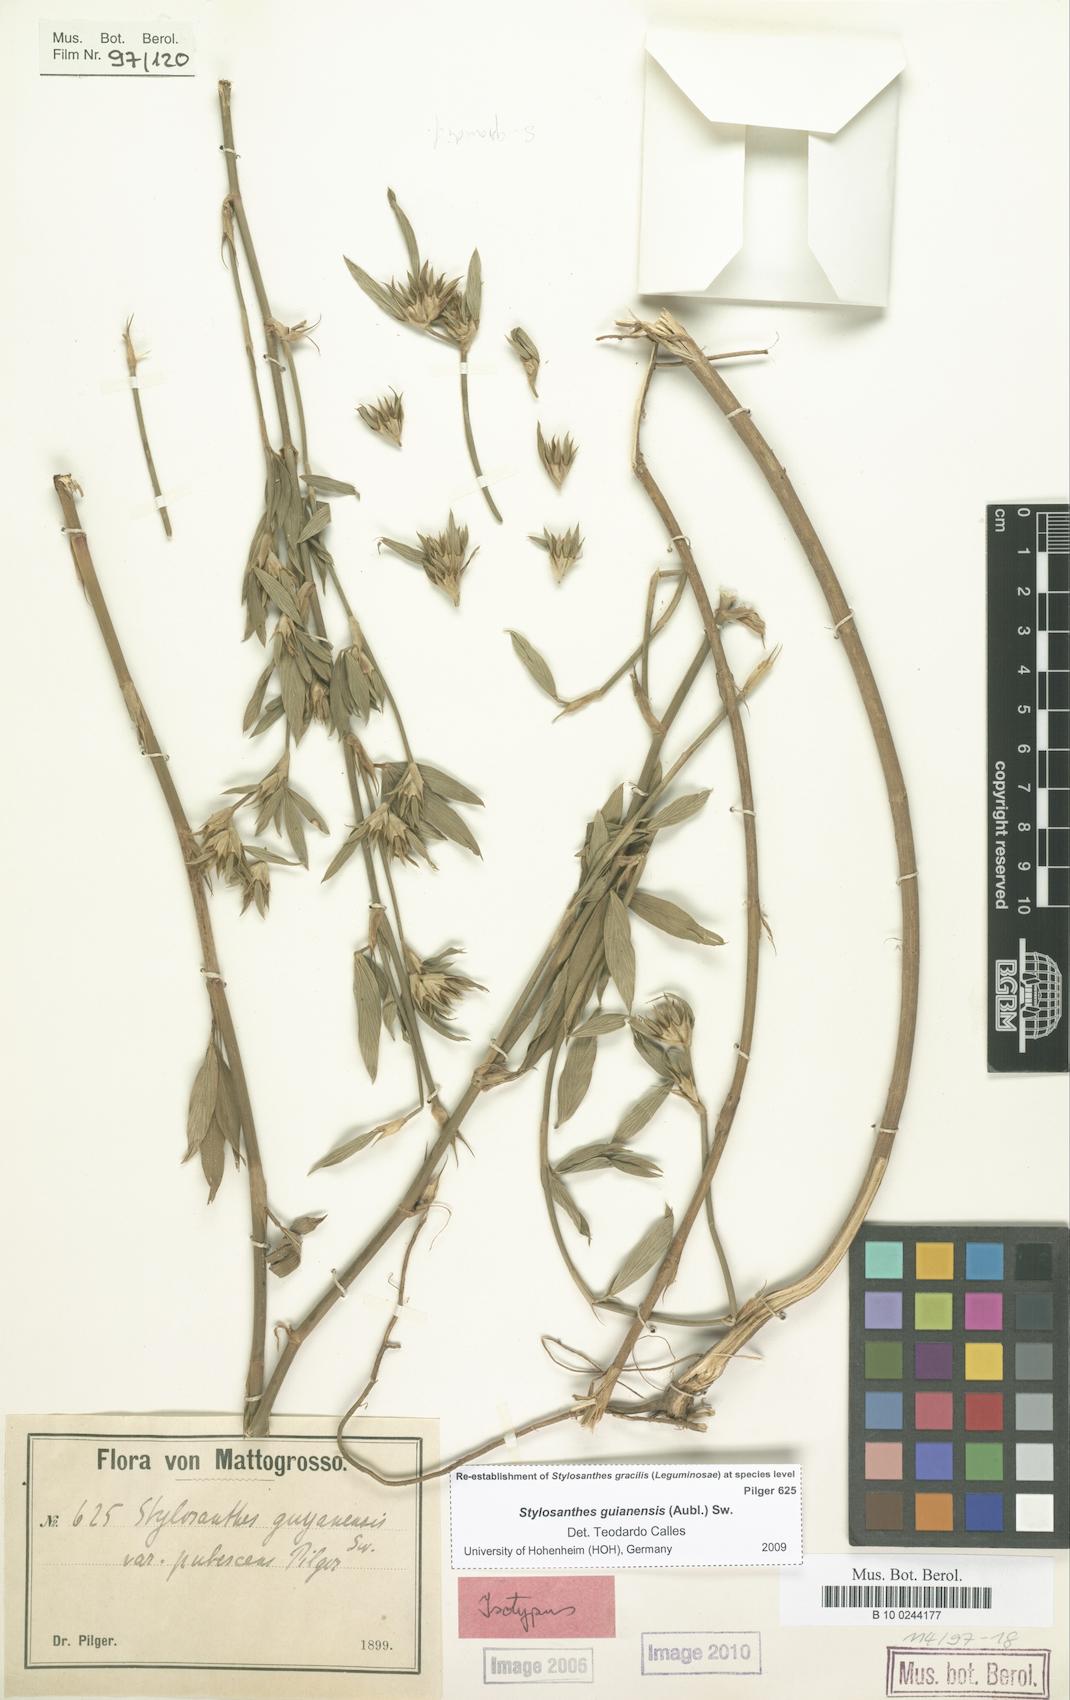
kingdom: Plantae
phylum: Tracheophyta
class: Magnoliopsida
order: Fabales
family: Fabaceae
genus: Stylosanthes
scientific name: Stylosanthes guianensis
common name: Pencil flower
